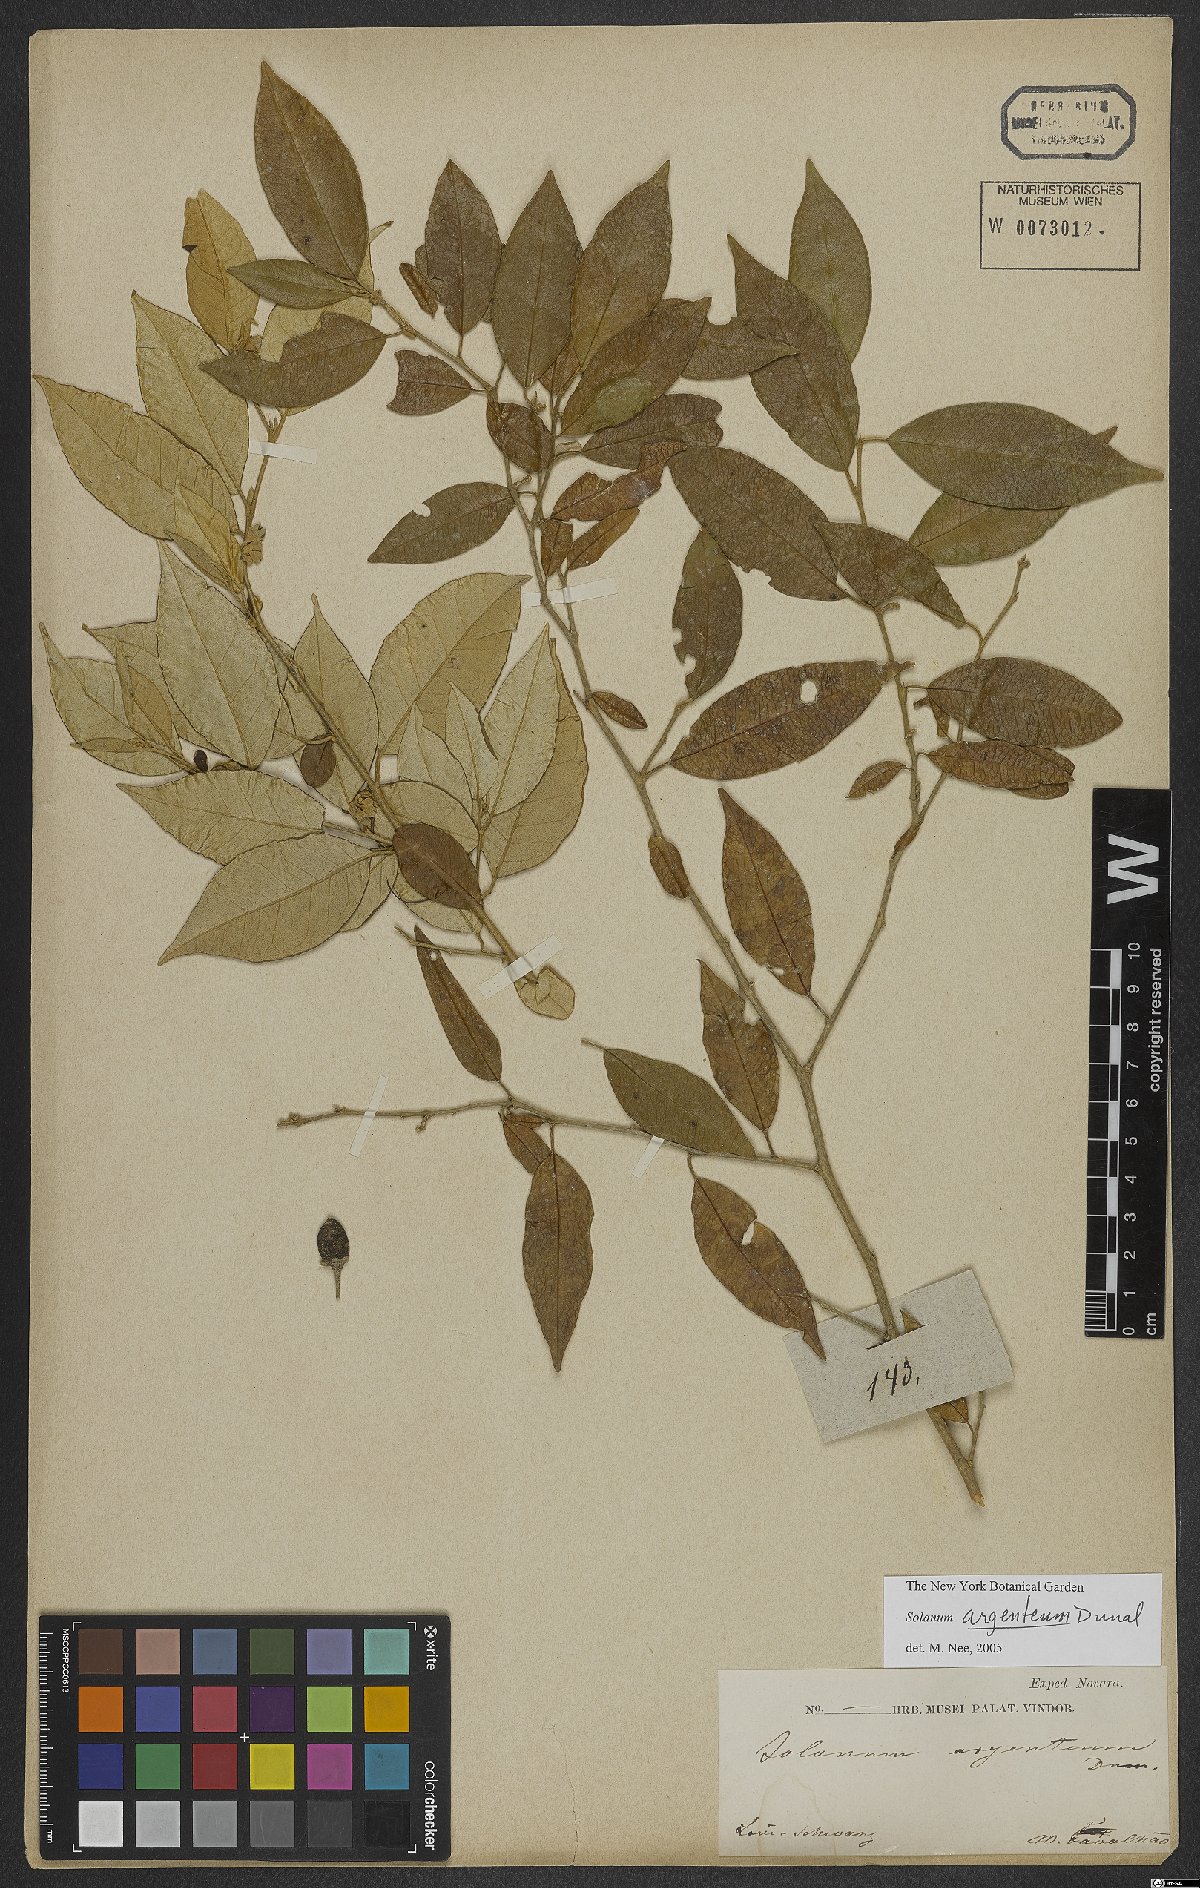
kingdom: Plantae
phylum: Tracheophyta
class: Magnoliopsida
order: Solanales
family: Solanaceae
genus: Solanum
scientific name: Solanum swartzianum
